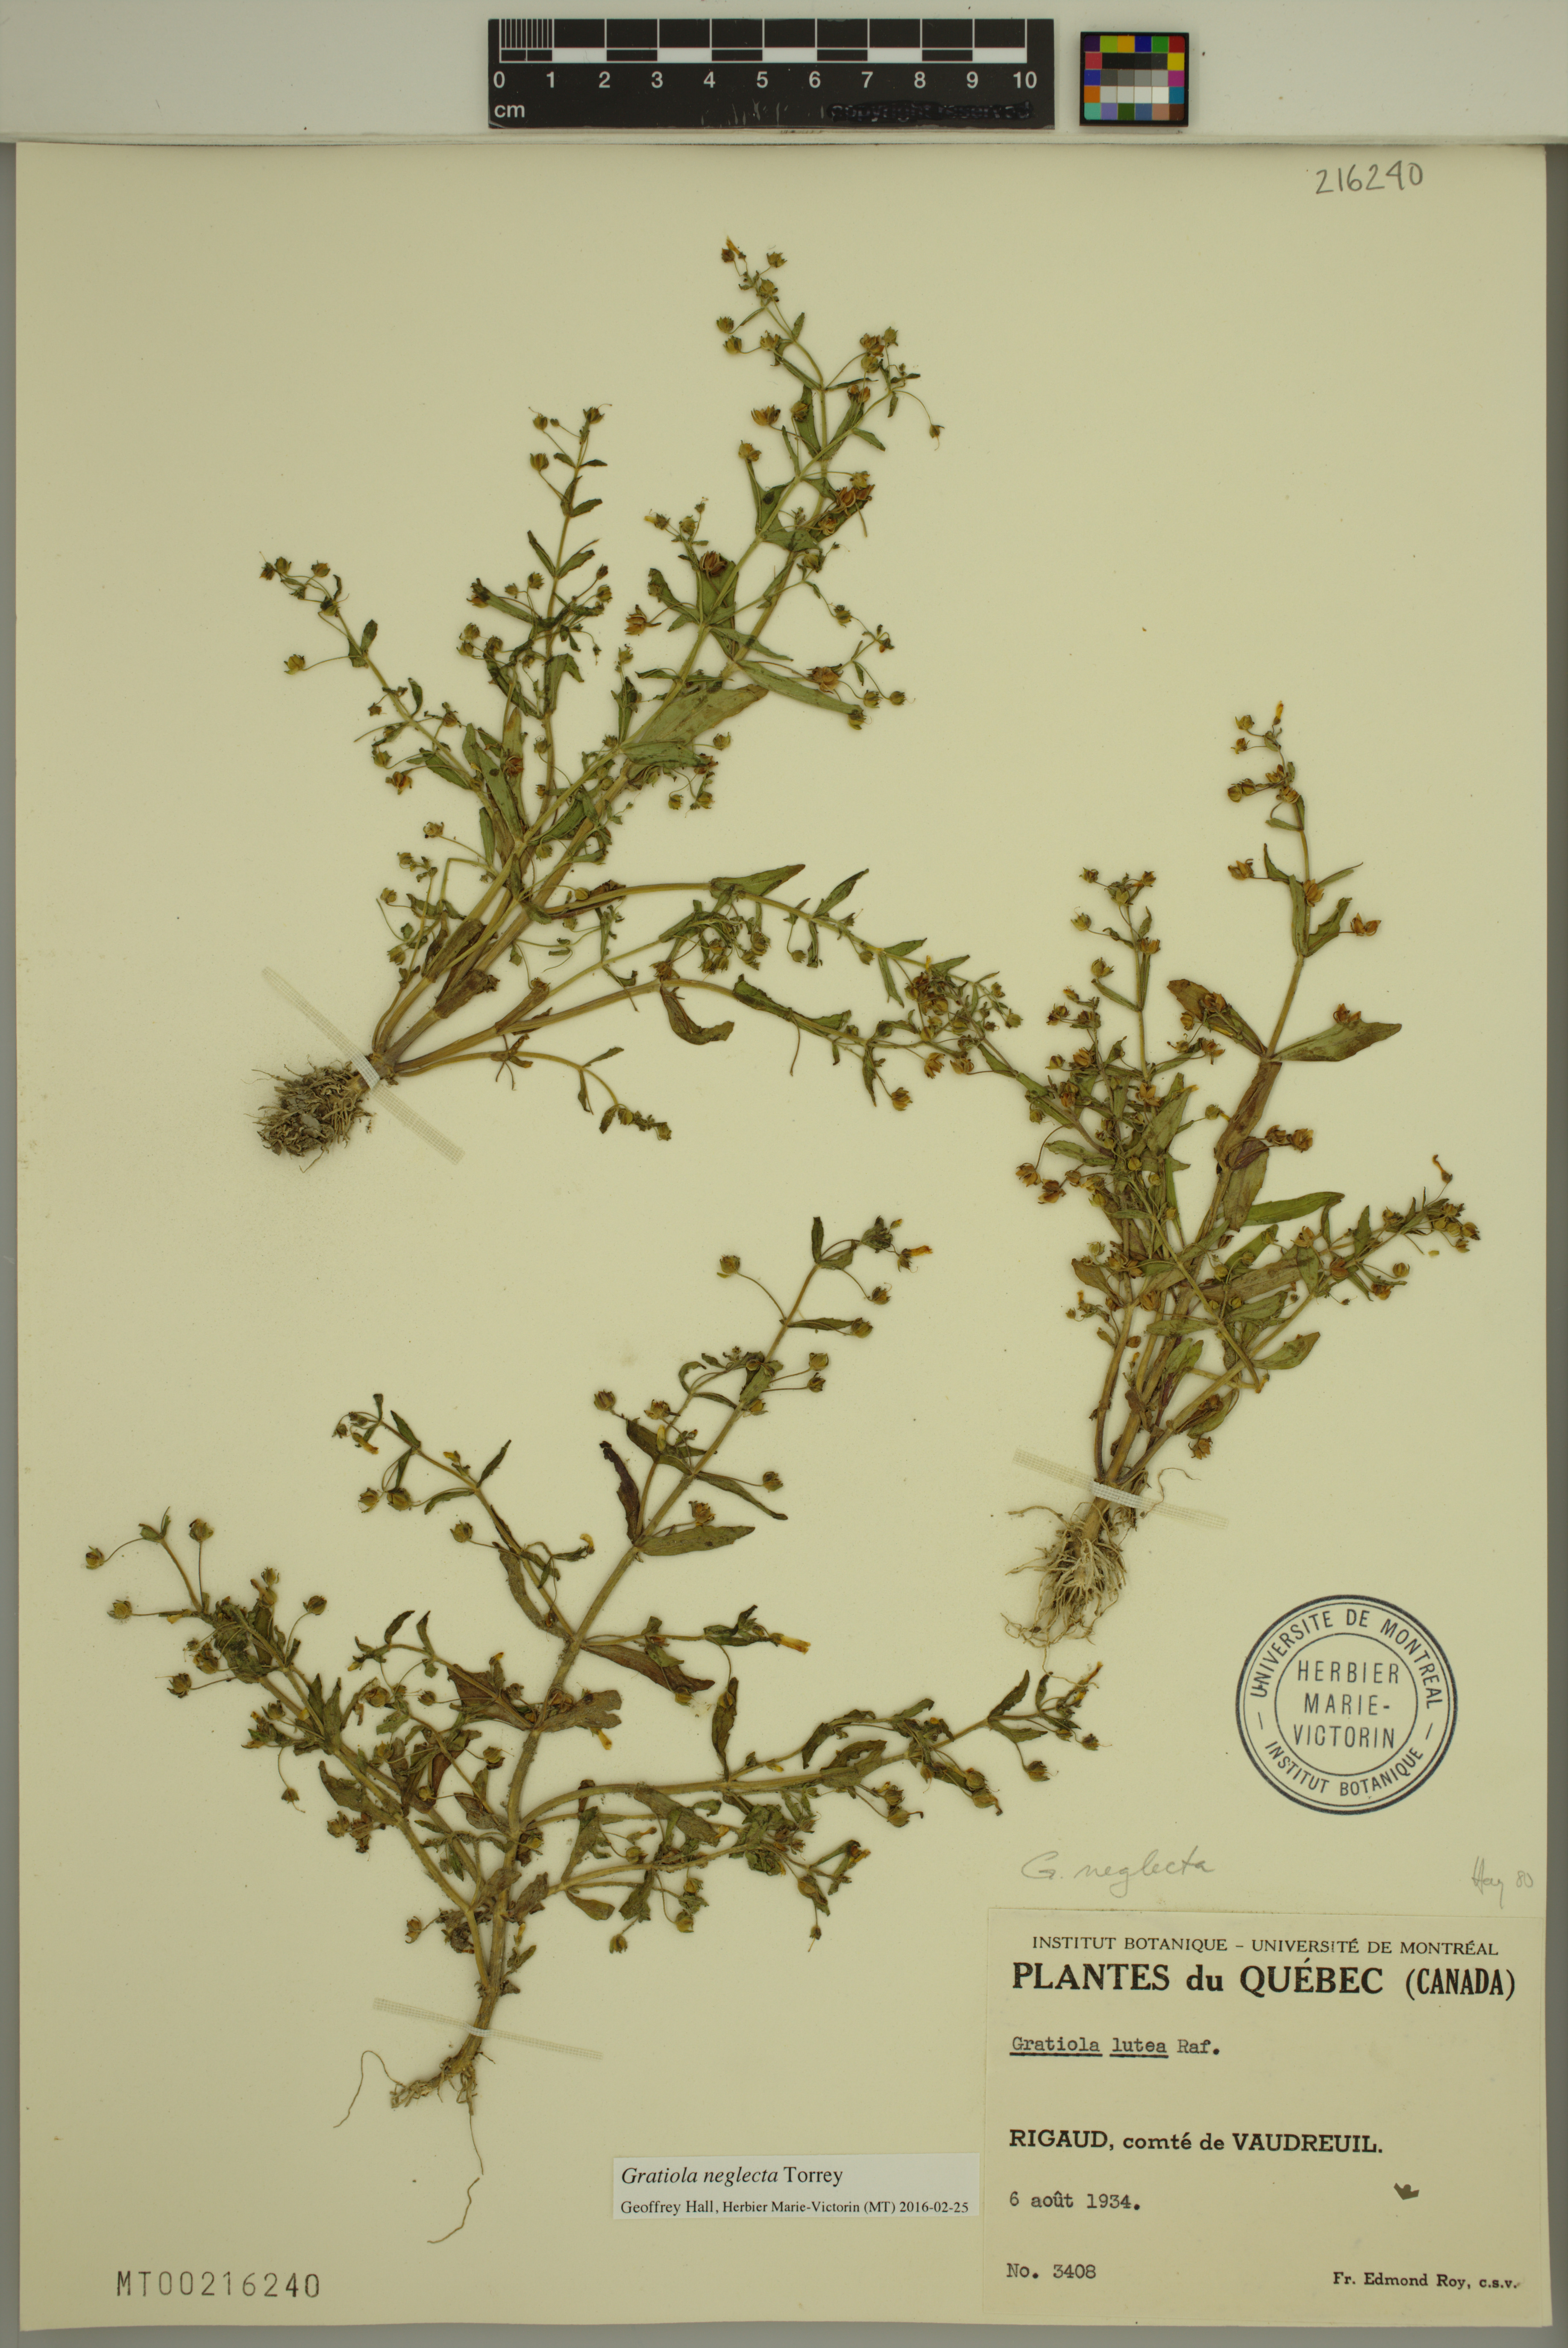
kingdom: Plantae
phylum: Tracheophyta
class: Magnoliopsida
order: Lamiales
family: Plantaginaceae
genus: Gratiola
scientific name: Gratiola neglecta
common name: American hedge-hyssop
